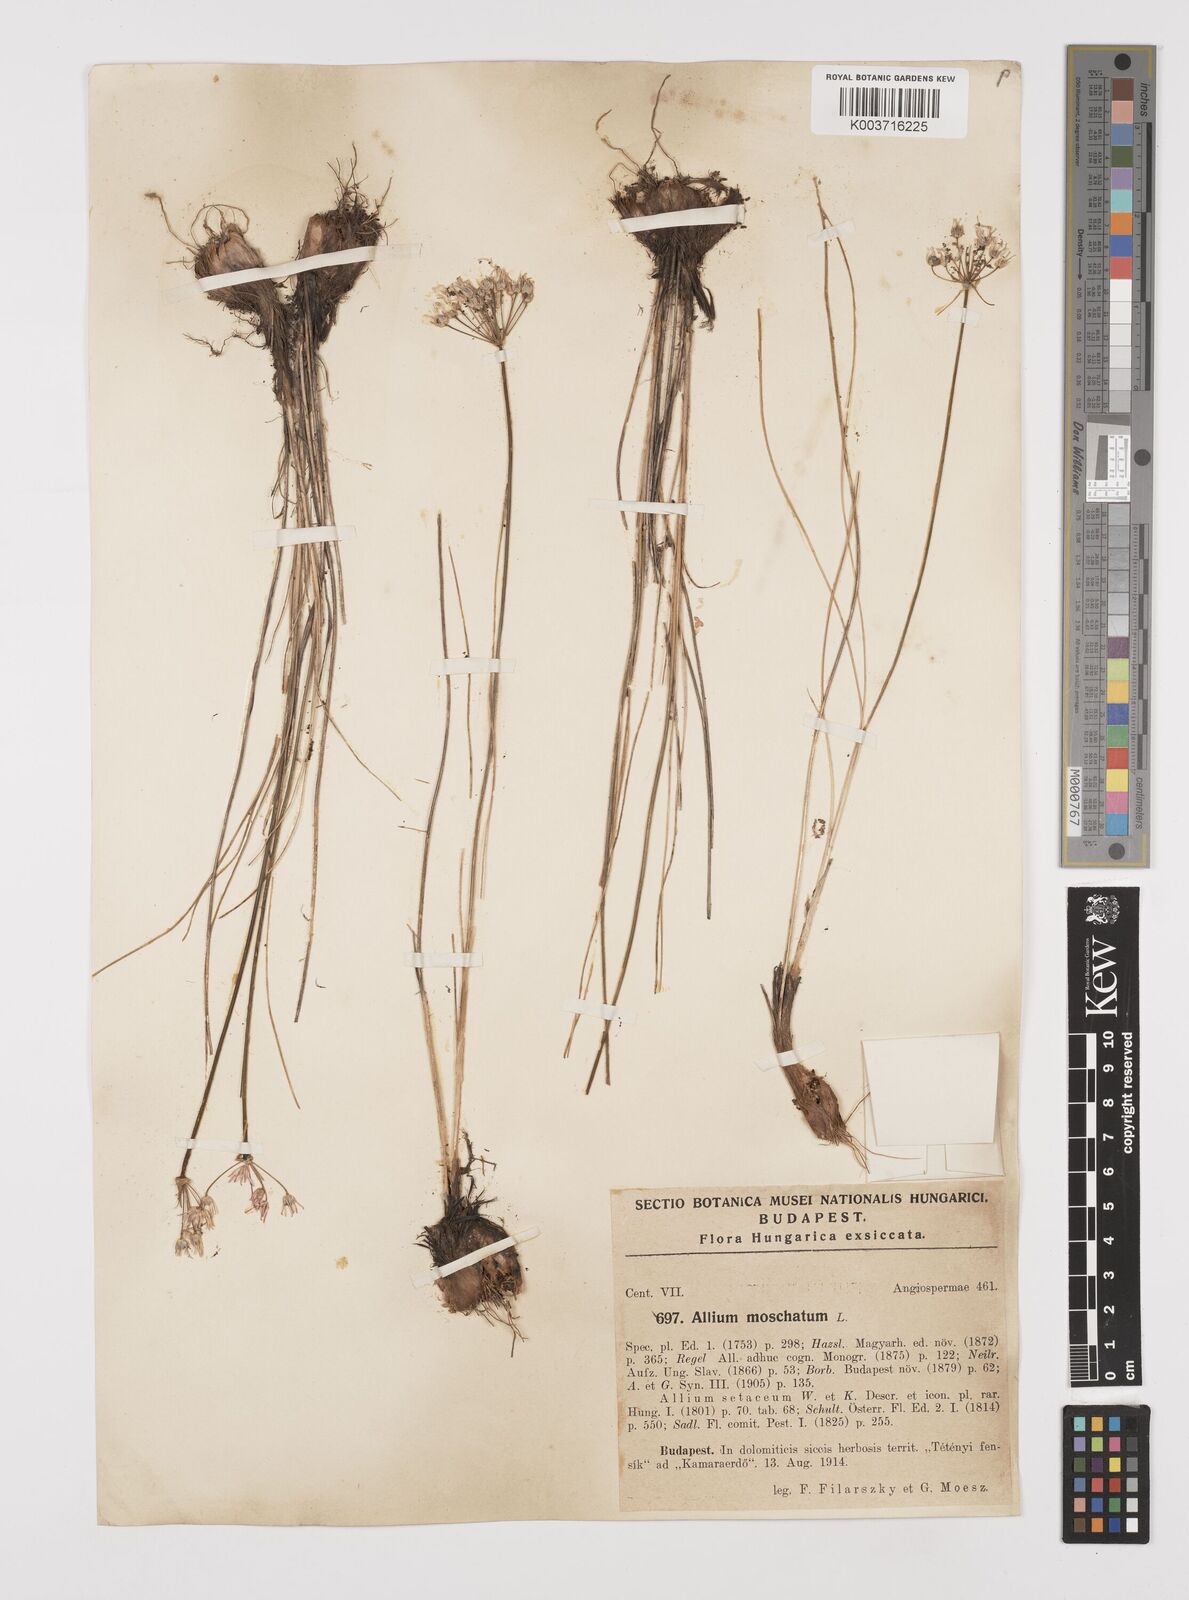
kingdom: Plantae
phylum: Tracheophyta
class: Liliopsida
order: Asparagales
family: Amaryllidaceae
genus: Allium
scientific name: Allium moschatum
